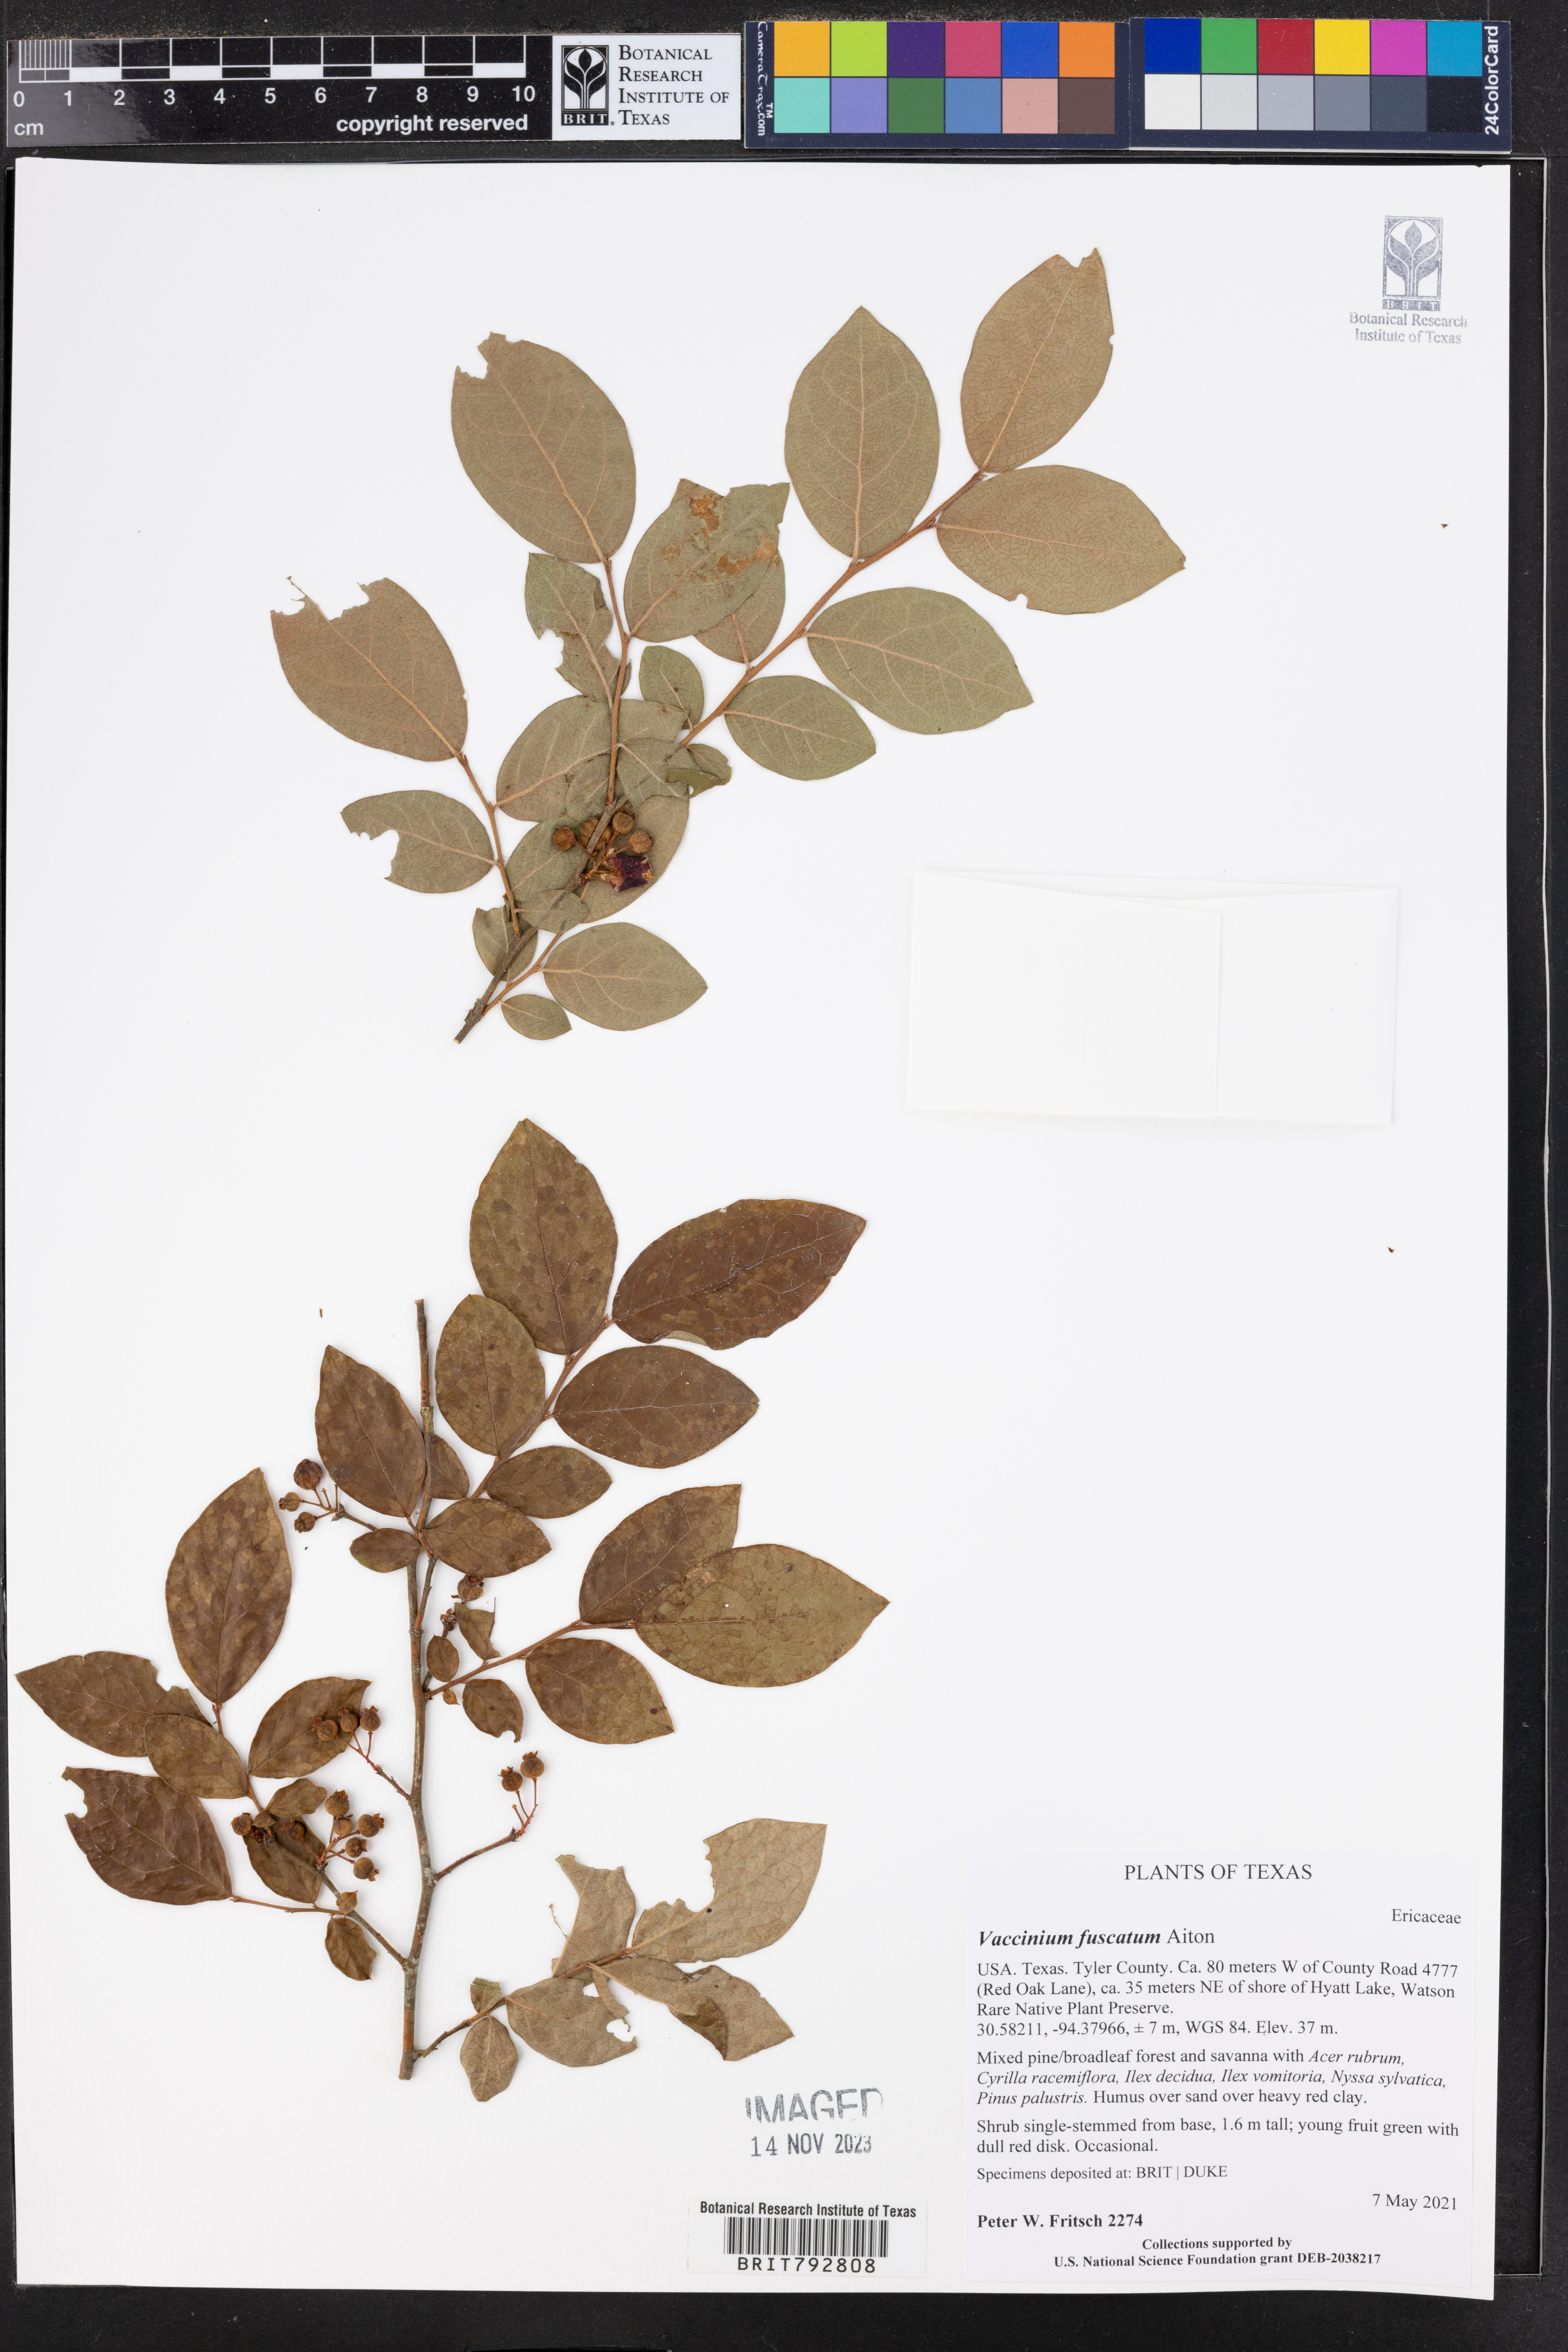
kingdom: Plantae
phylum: Tracheophyta
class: Magnoliopsida
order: Ericales
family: Ericaceae
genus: Vaccinium
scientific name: Vaccinium corymbosum
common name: Blueberry
